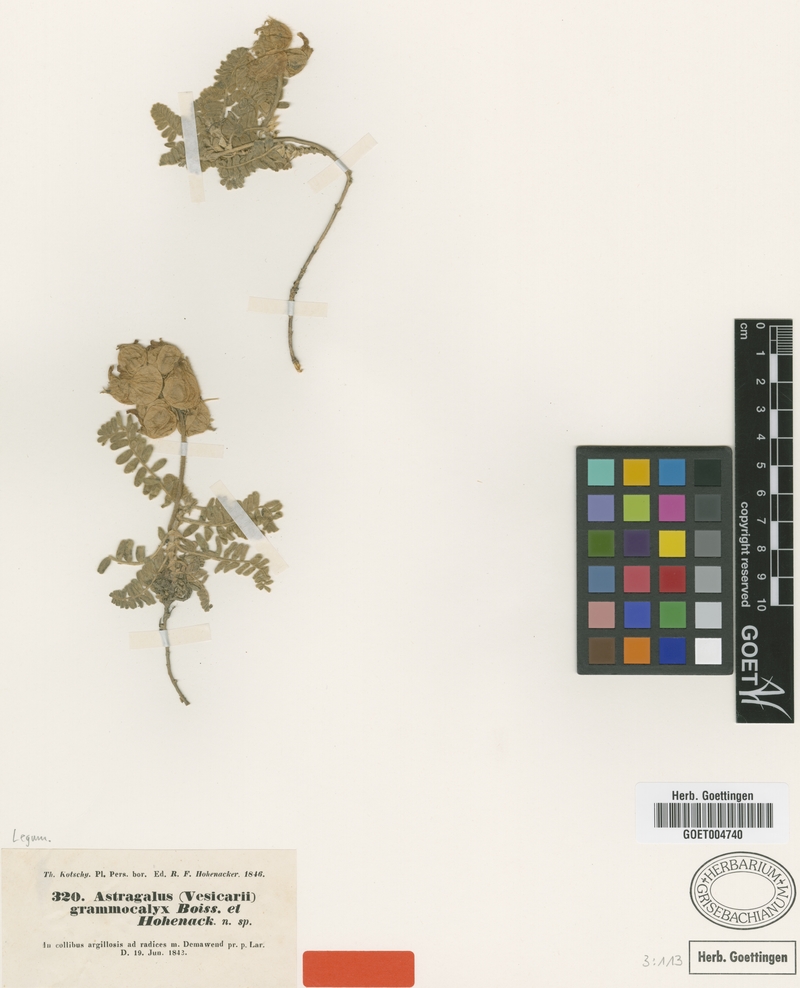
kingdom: Plantae
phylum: Tracheophyta
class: Magnoliopsida
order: Fabales
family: Fabaceae
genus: Astragalus
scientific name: Astragalus lineatus
